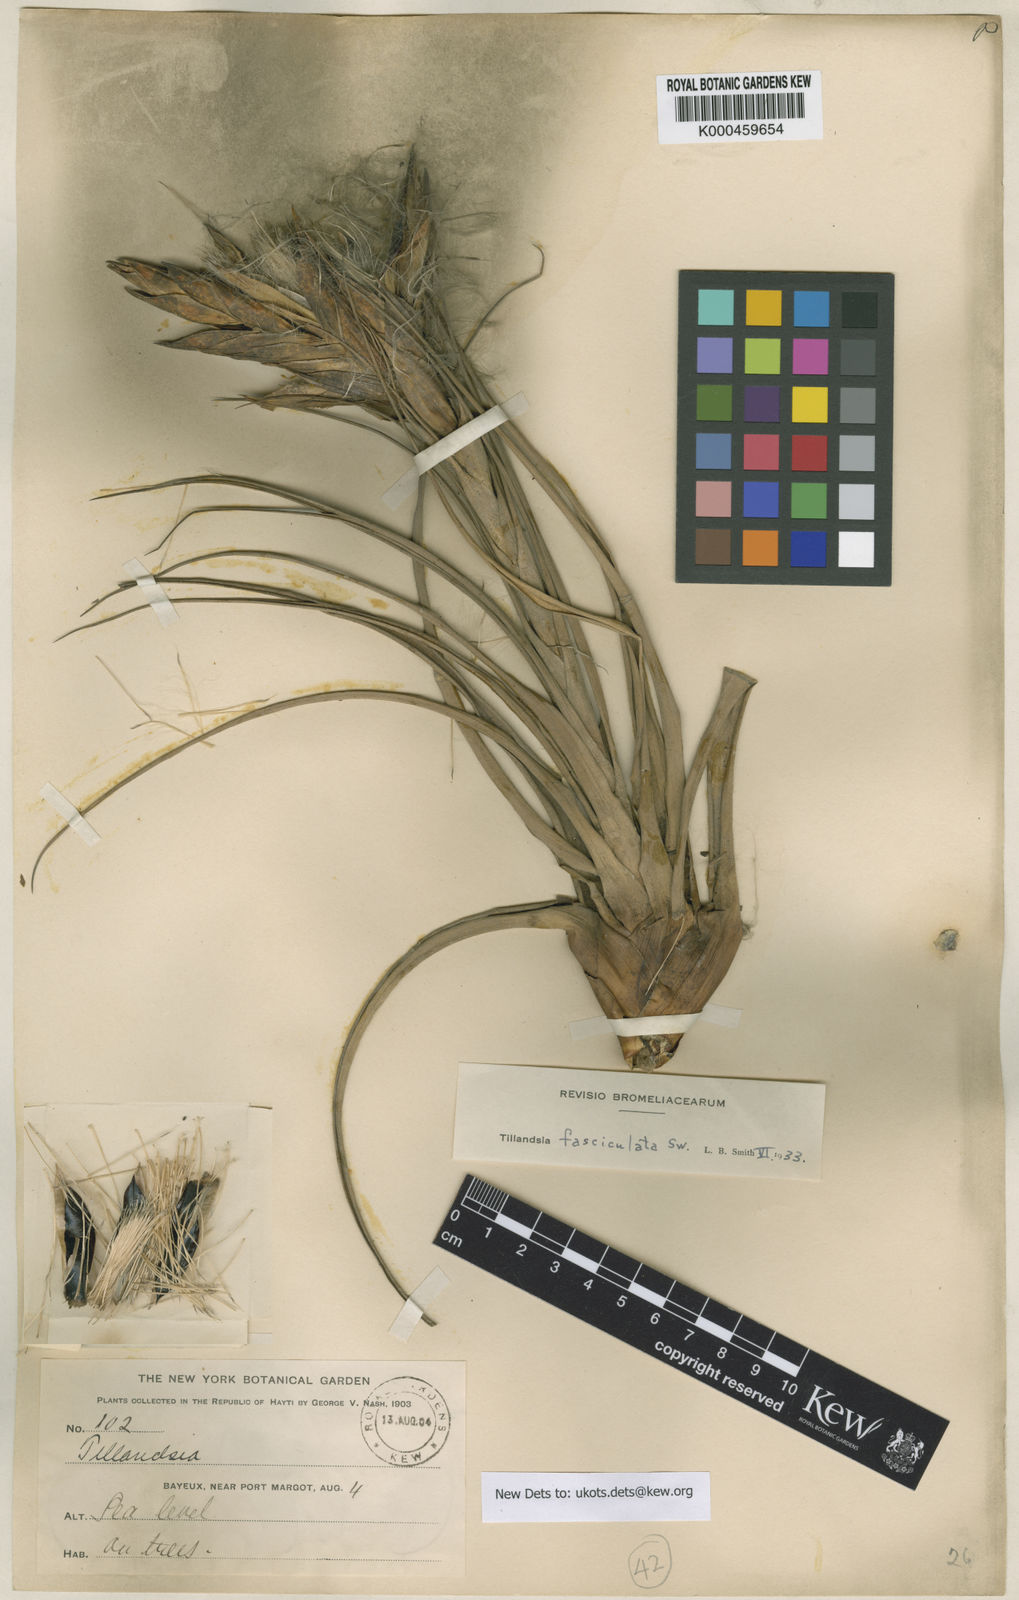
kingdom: Plantae
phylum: Tracheophyta
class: Liliopsida
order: Poales
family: Bromeliaceae
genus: Tillandsia
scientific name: Tillandsia
